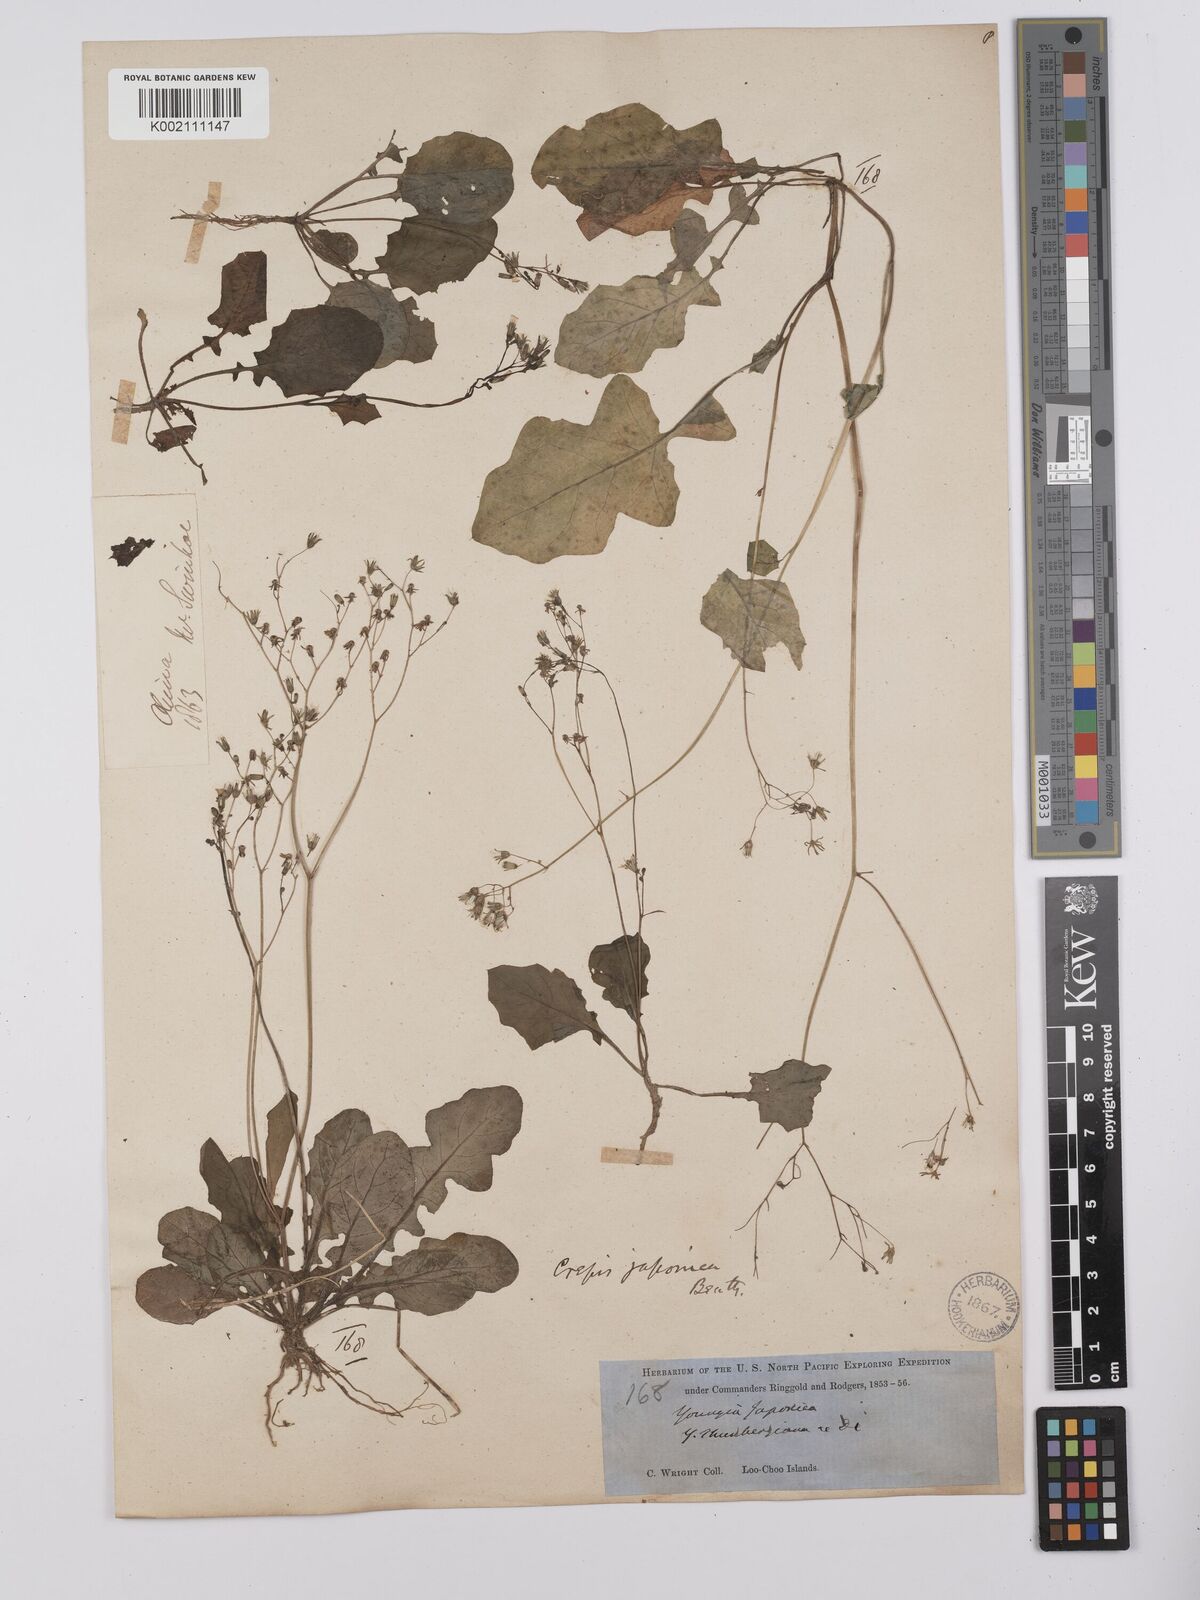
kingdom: Plantae
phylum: Tracheophyta
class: Magnoliopsida
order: Asterales
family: Asteraceae
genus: Youngia
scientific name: Youngia japonica
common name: Oriental false hawksbeard
